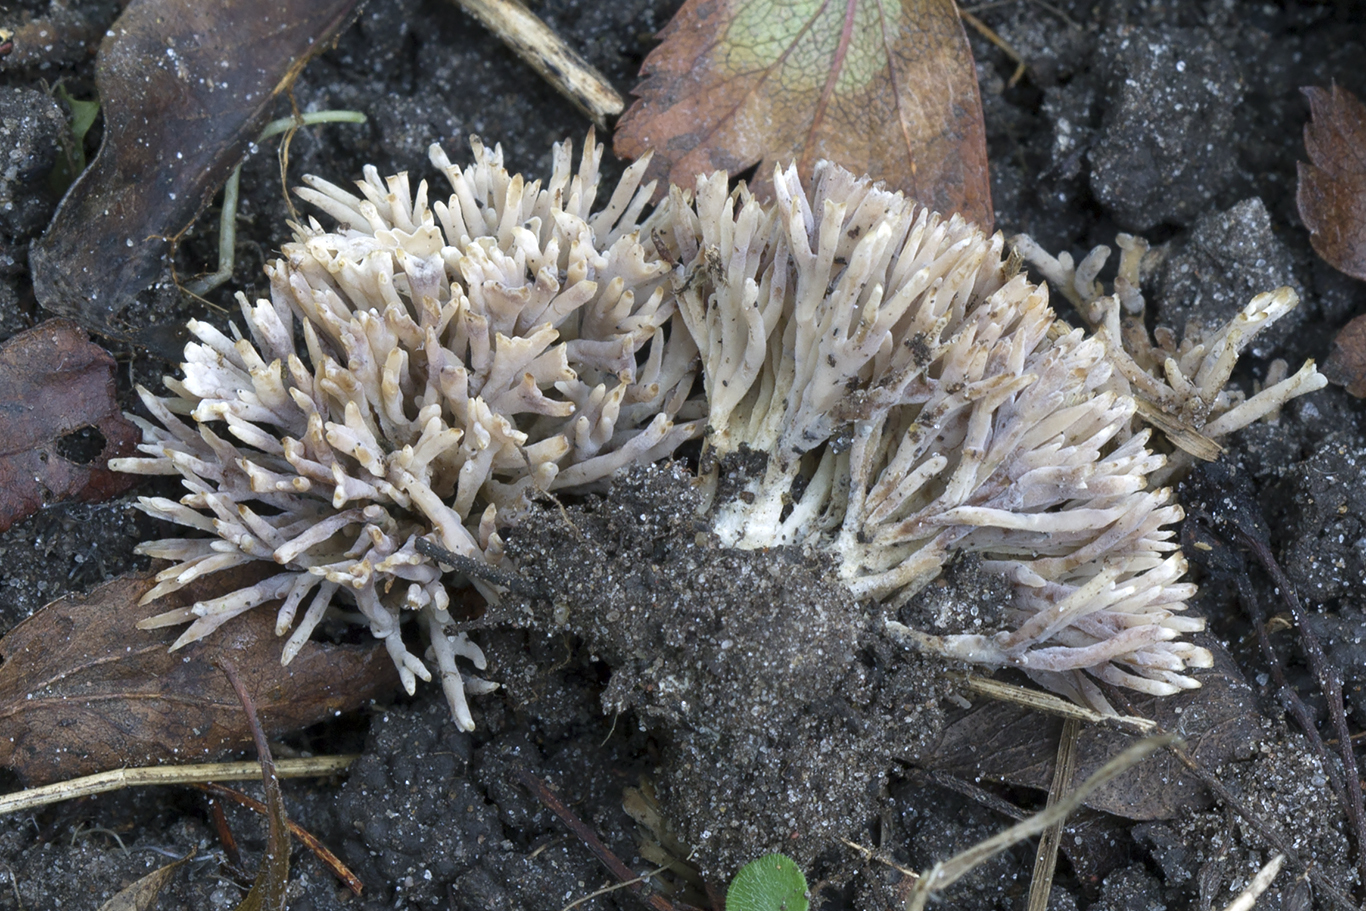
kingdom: Fungi
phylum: Basidiomycota
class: Agaricomycetes
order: Tremellodendropsidales
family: Tremellodendropsidaceae
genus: Tremellodendropsis
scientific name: Tremellodendropsis tuberosa
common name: bævrekølle
